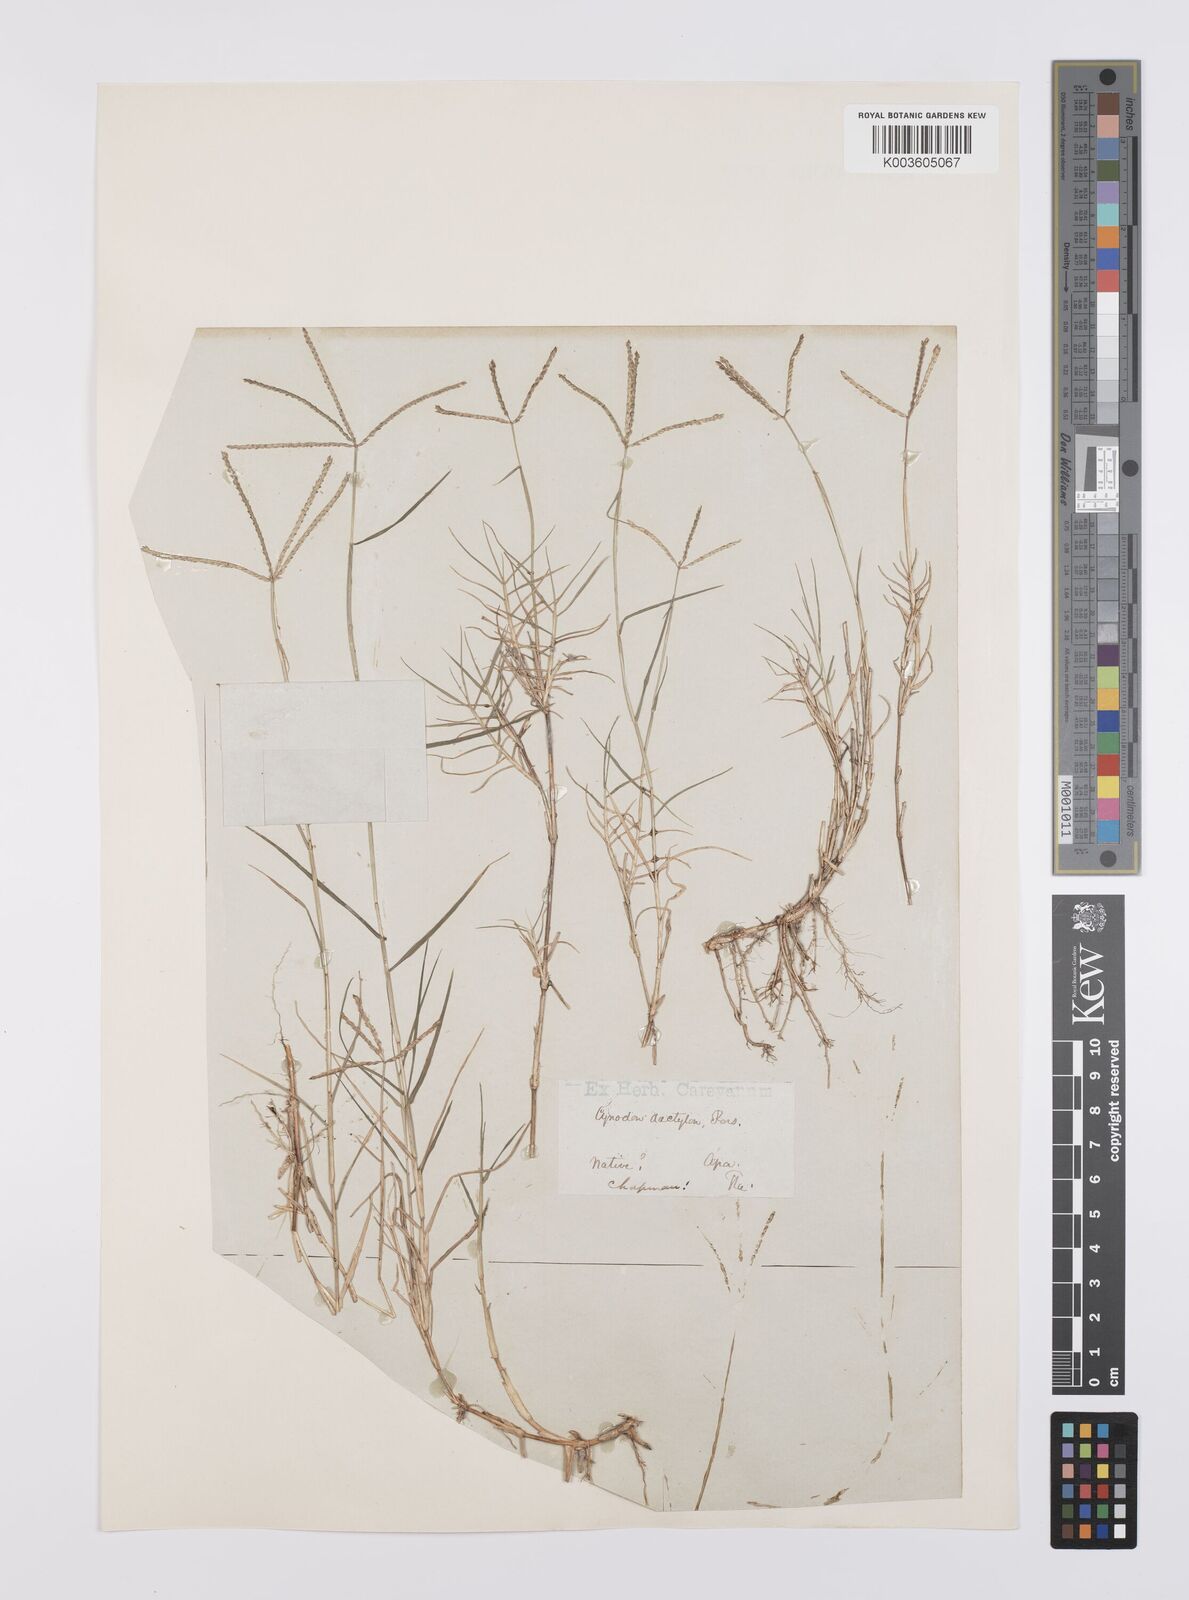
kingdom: Plantae
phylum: Tracheophyta
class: Liliopsida
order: Poales
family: Poaceae
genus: Cynodon
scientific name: Cynodon dactylon
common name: Bermuda grass
